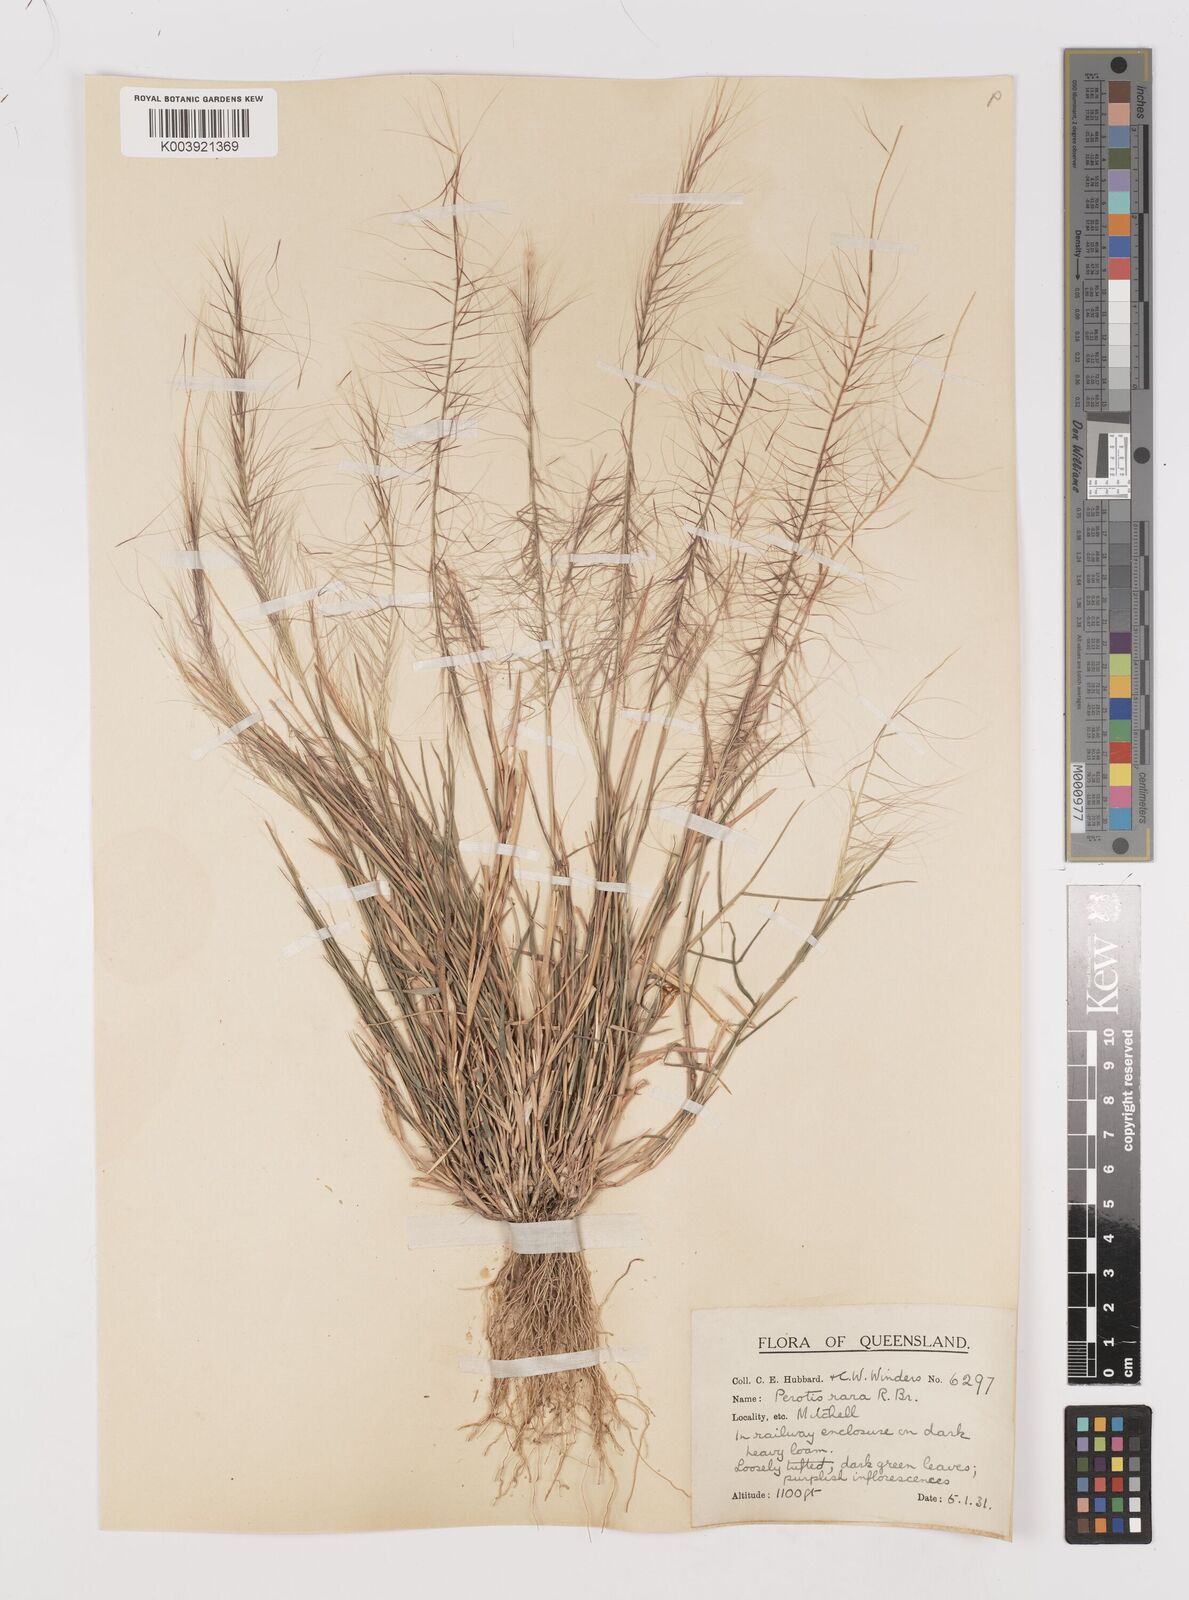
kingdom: Plantae
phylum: Tracheophyta
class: Liliopsida
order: Poales
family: Poaceae
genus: Perotis
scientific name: Perotis rara
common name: Comet grass
